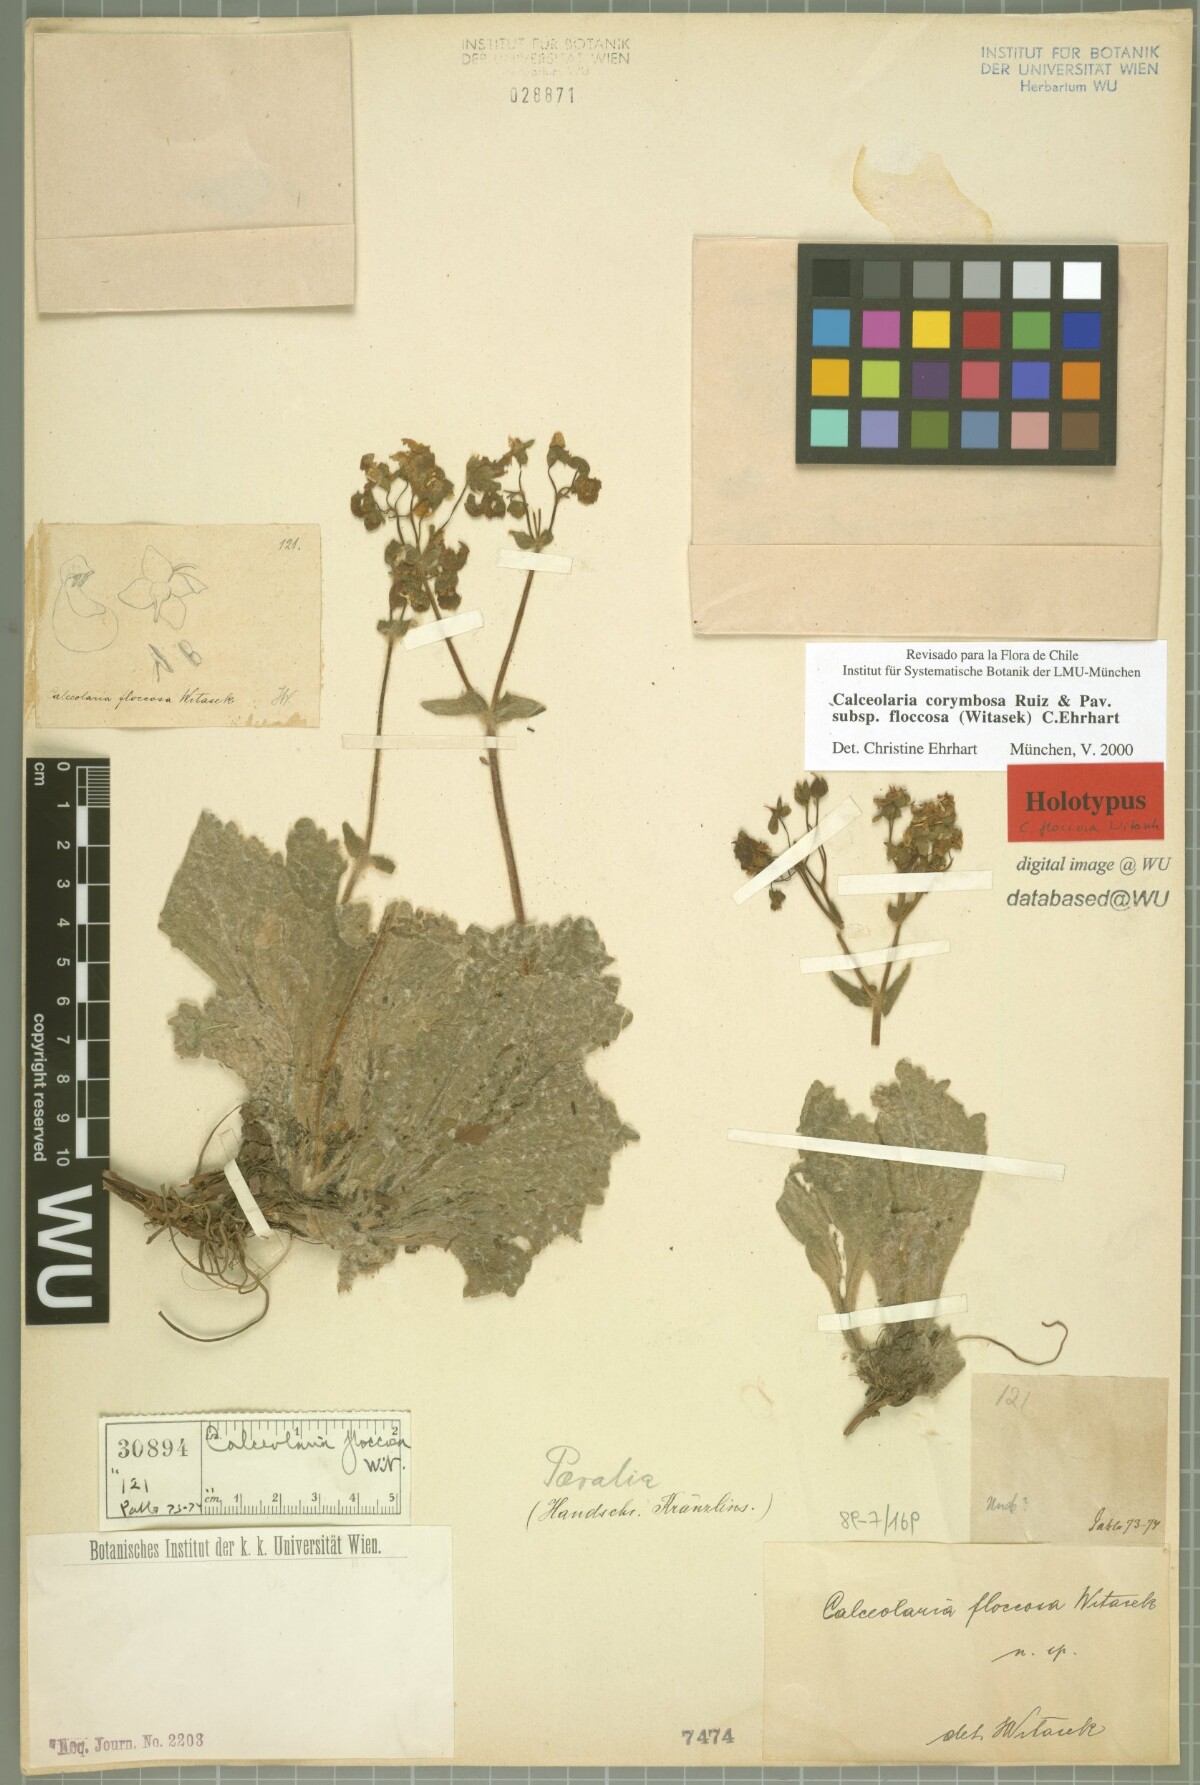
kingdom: Plantae
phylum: Tracheophyta
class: Magnoliopsida
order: Lamiales
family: Calceolariaceae
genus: Calceolaria
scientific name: Calceolaria corymbosa
